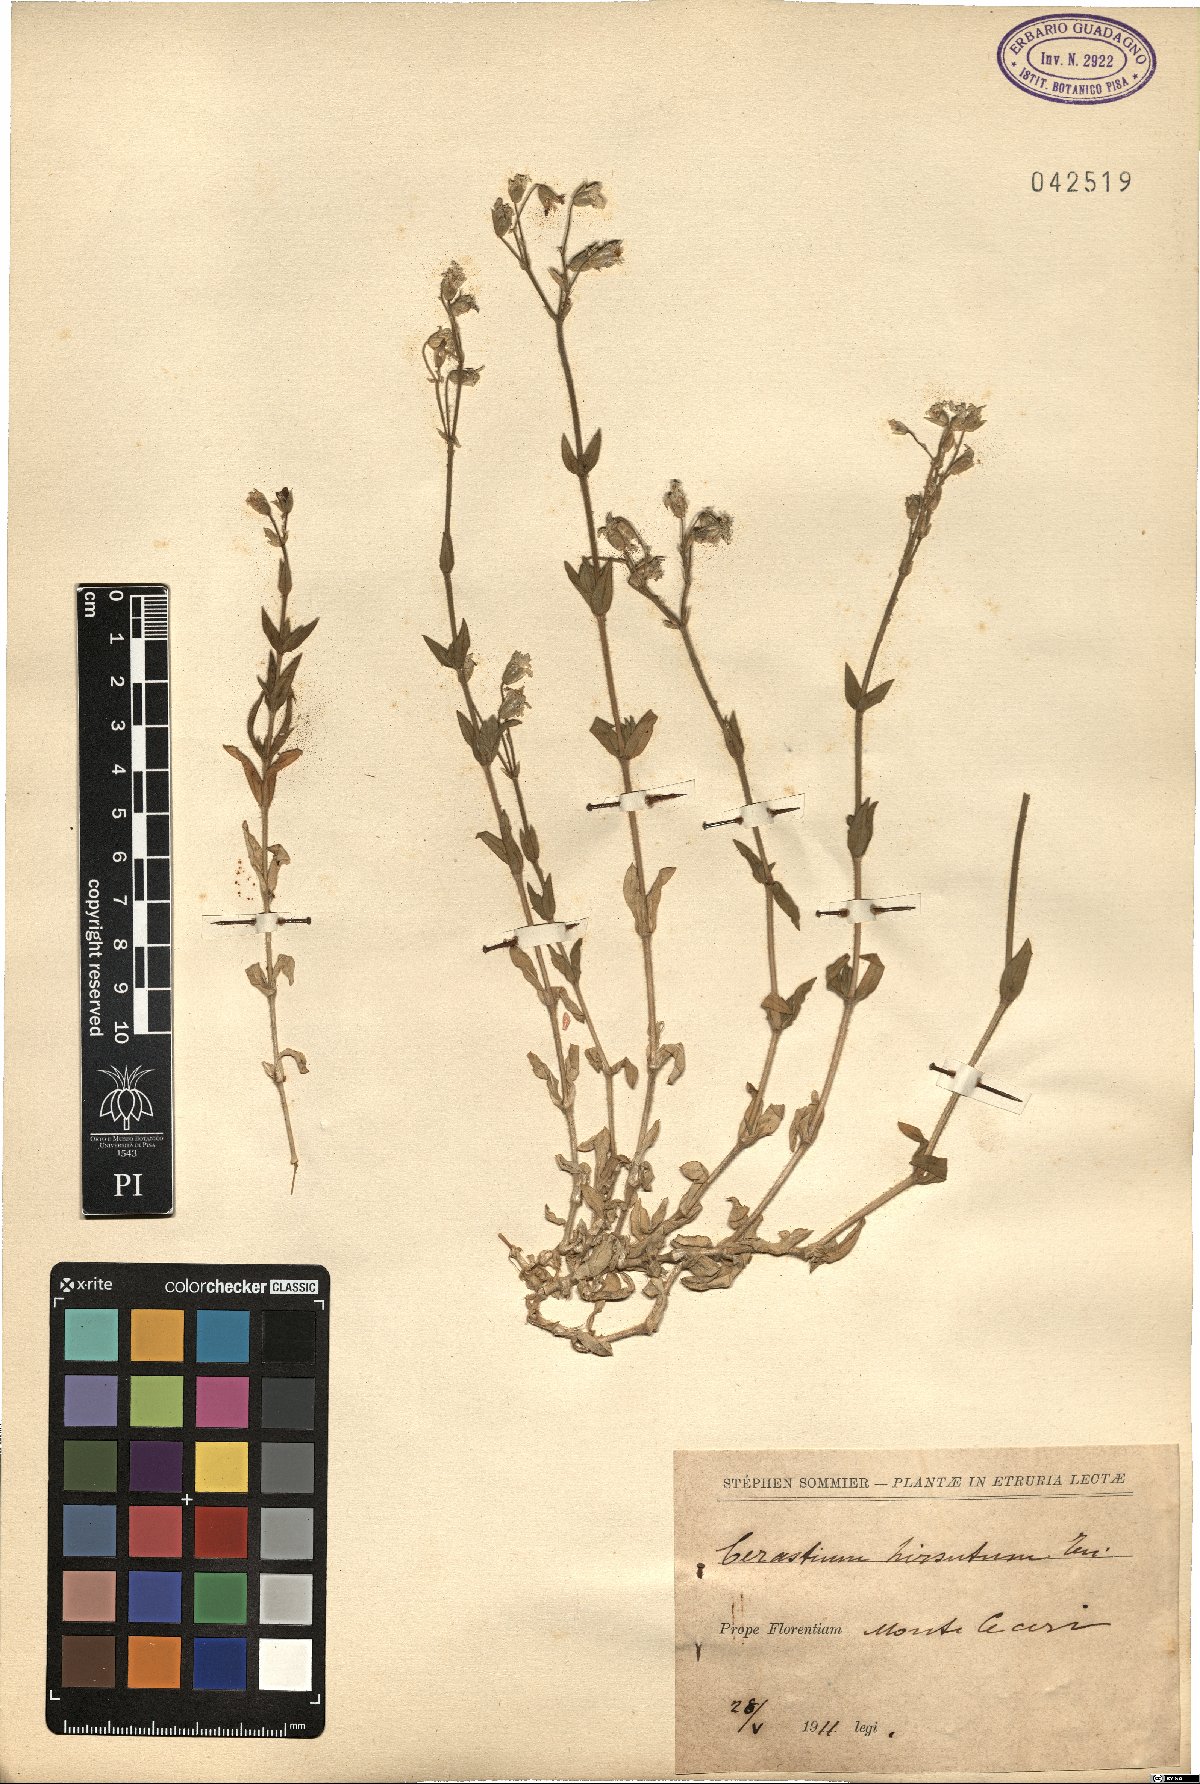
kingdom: Plantae
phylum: Tracheophyta
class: Magnoliopsida
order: Caryophyllales
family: Caryophyllaceae
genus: Cerastium
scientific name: Cerastium scaranii
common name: Italian mouse-ear
